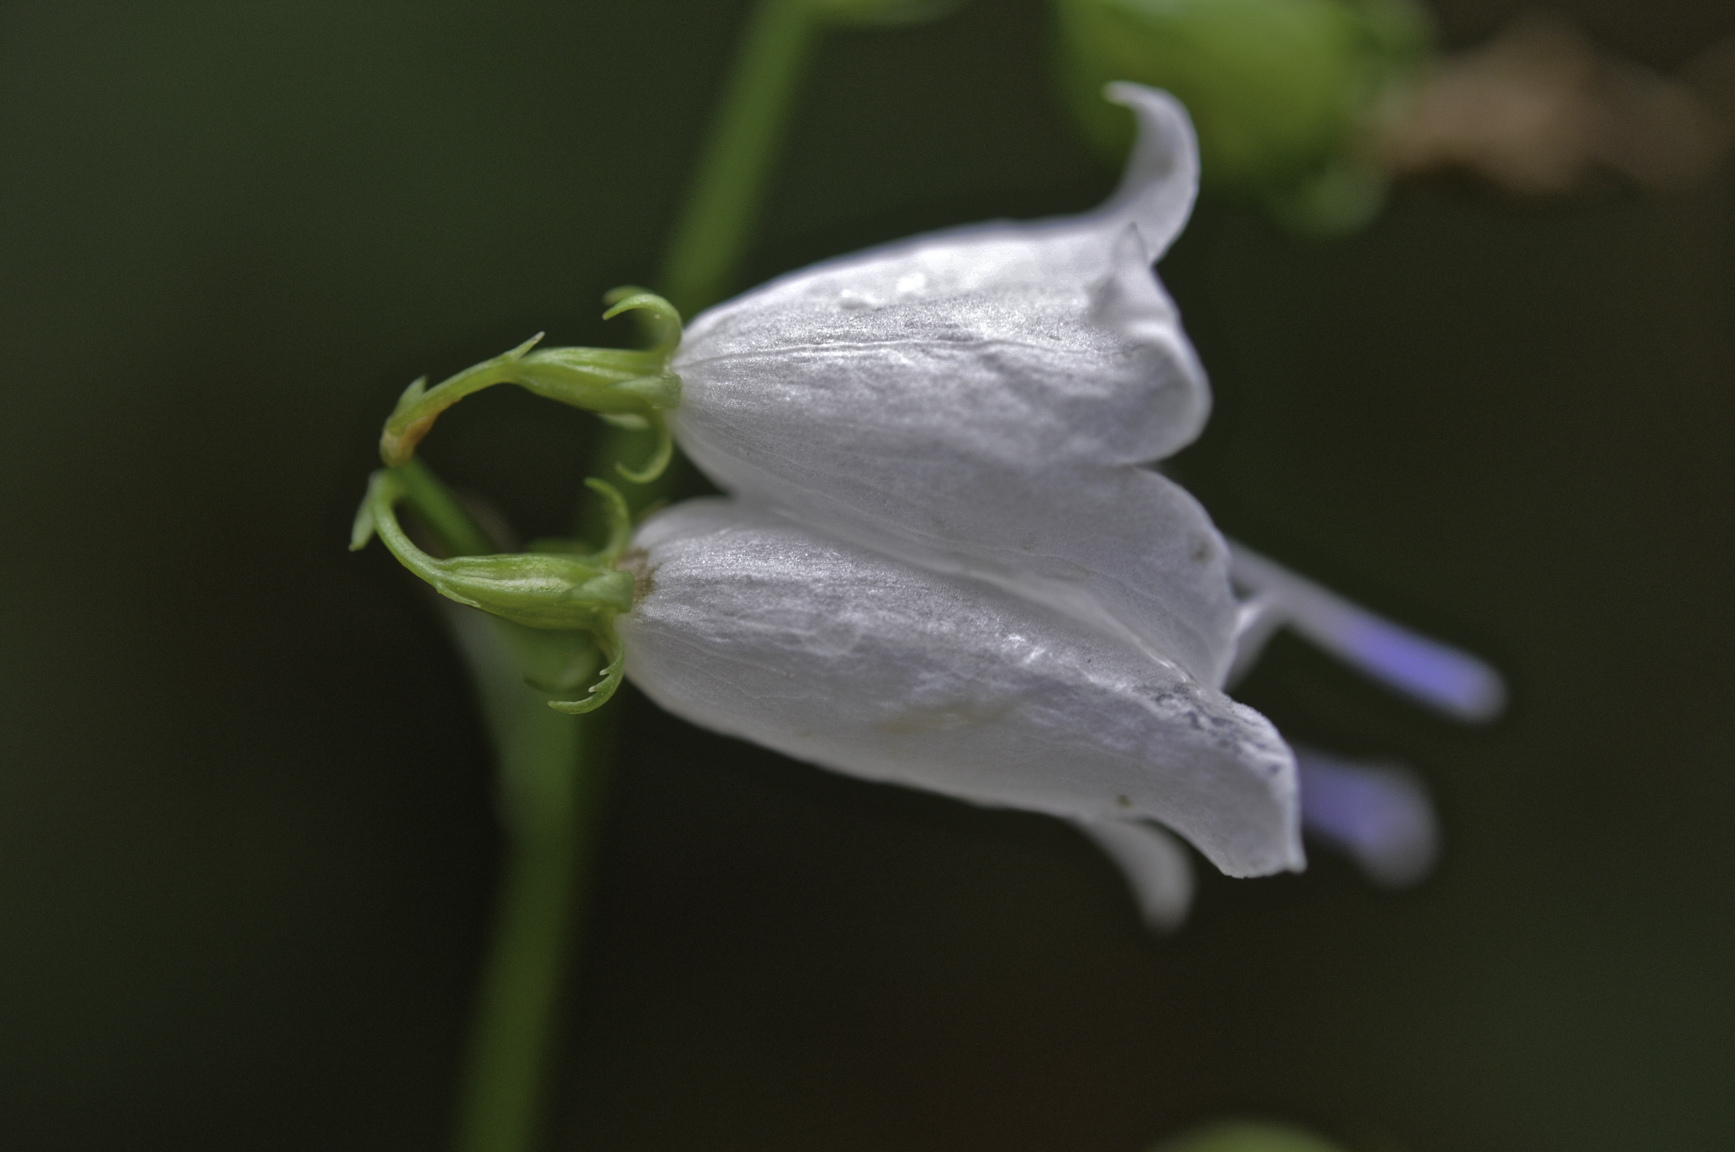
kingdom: Plantae
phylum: Tracheophyta
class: Magnoliopsida
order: Asterales
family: Campanulaceae
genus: Adenophora
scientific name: Adenophora liliifolia
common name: Lilyleaf ladybells
